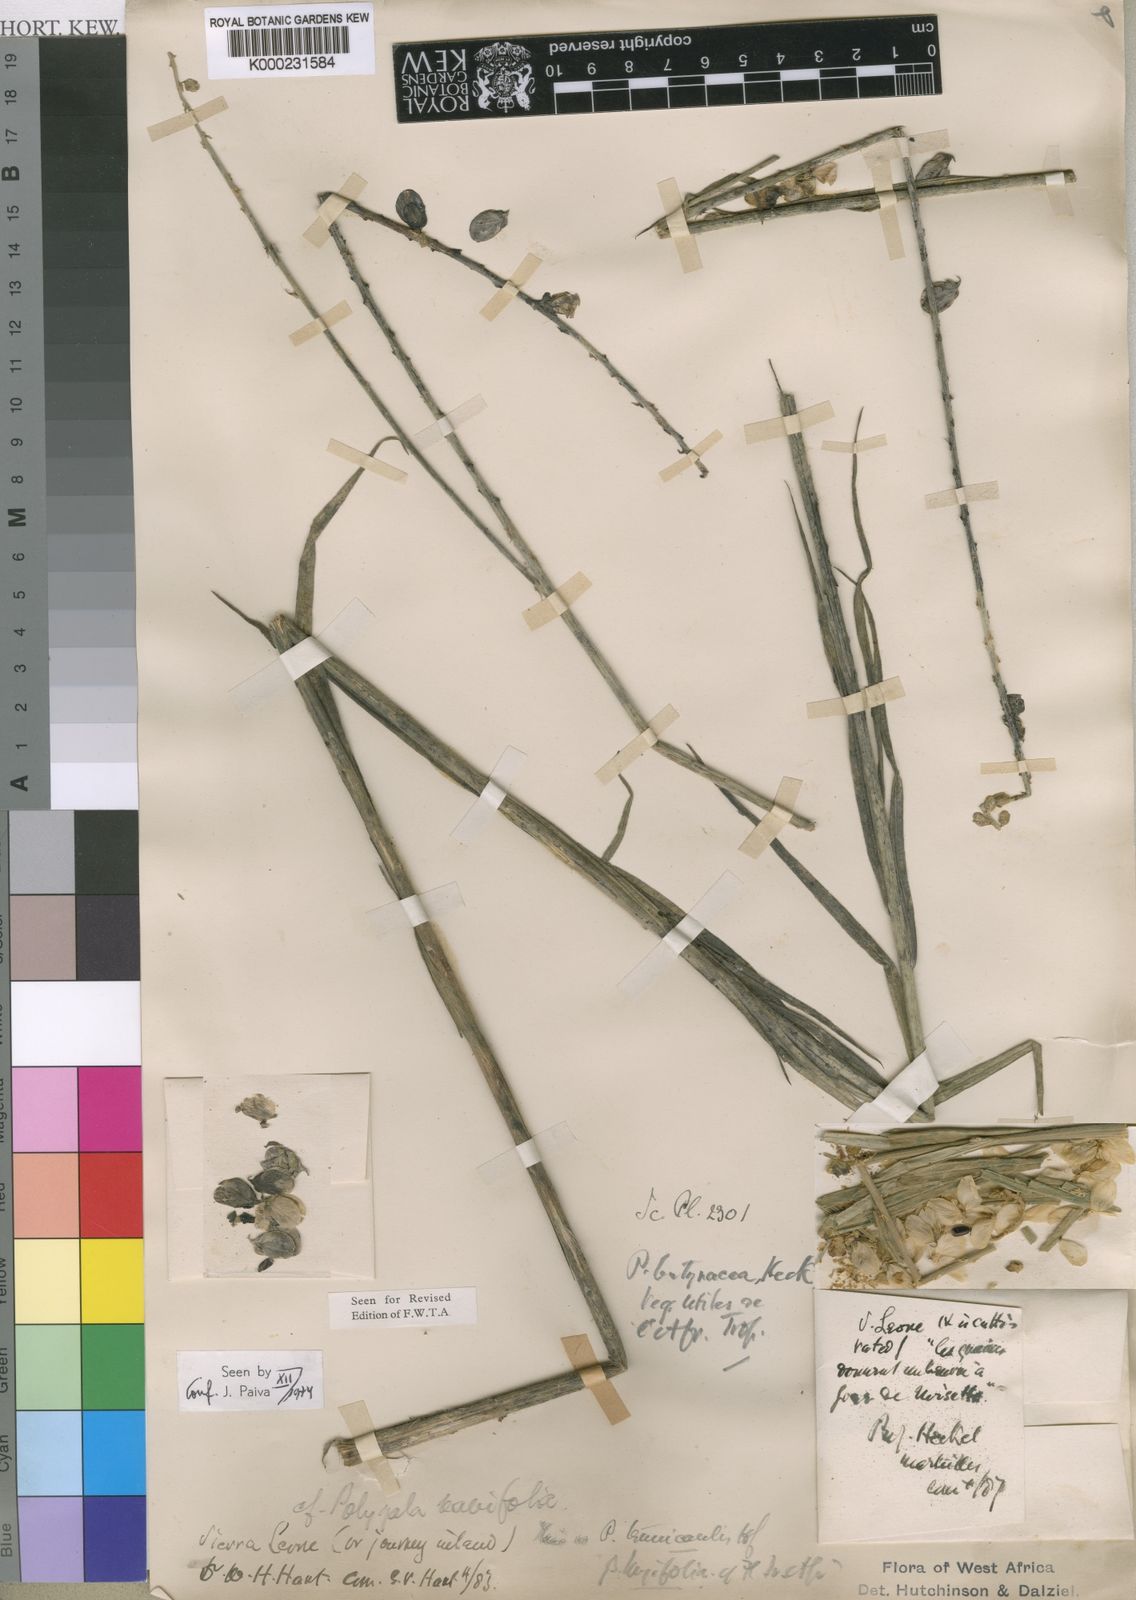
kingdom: Plantae
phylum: Tracheophyta
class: Magnoliopsida
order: Fabales
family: Polygalaceae
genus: Polygala
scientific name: Polygala butyracea
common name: Black beniseed
